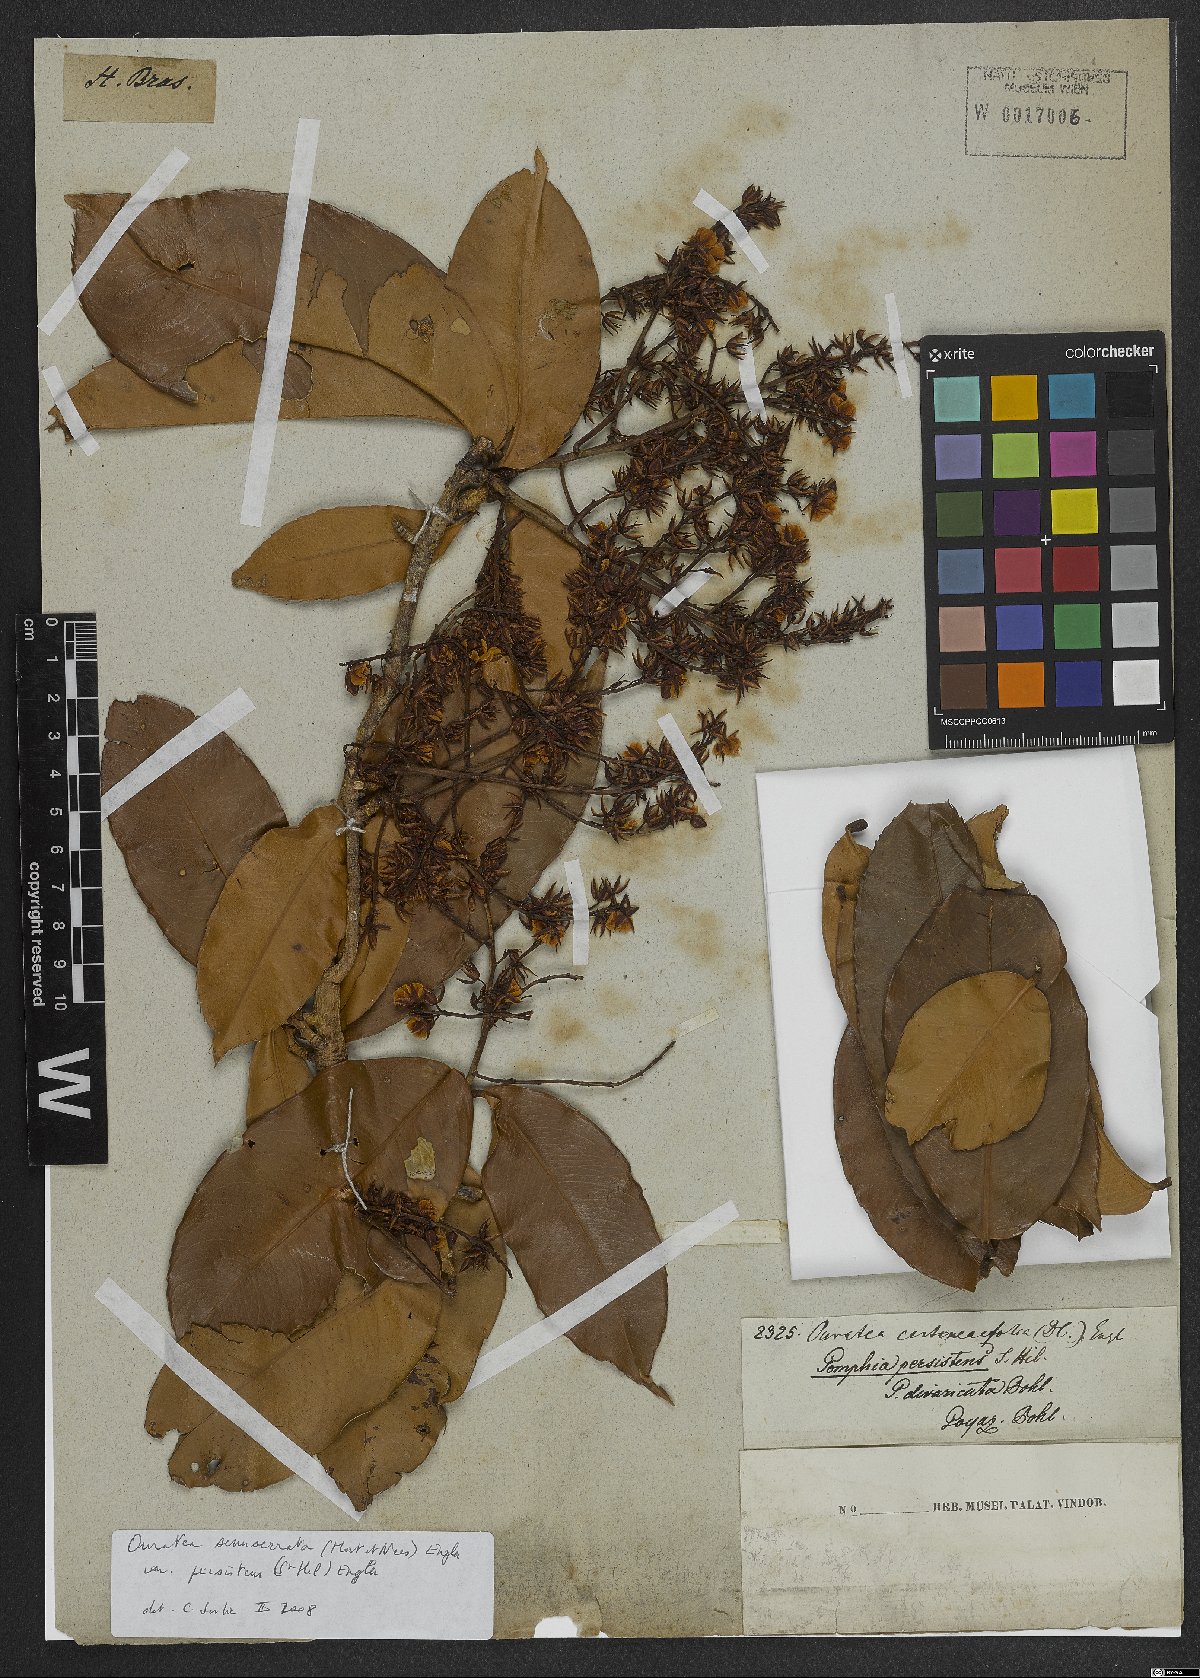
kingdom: Plantae
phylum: Tracheophyta
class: Magnoliopsida
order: Malpighiales
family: Ochnaceae
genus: Ouratea
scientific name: Ouratea semiserrata
